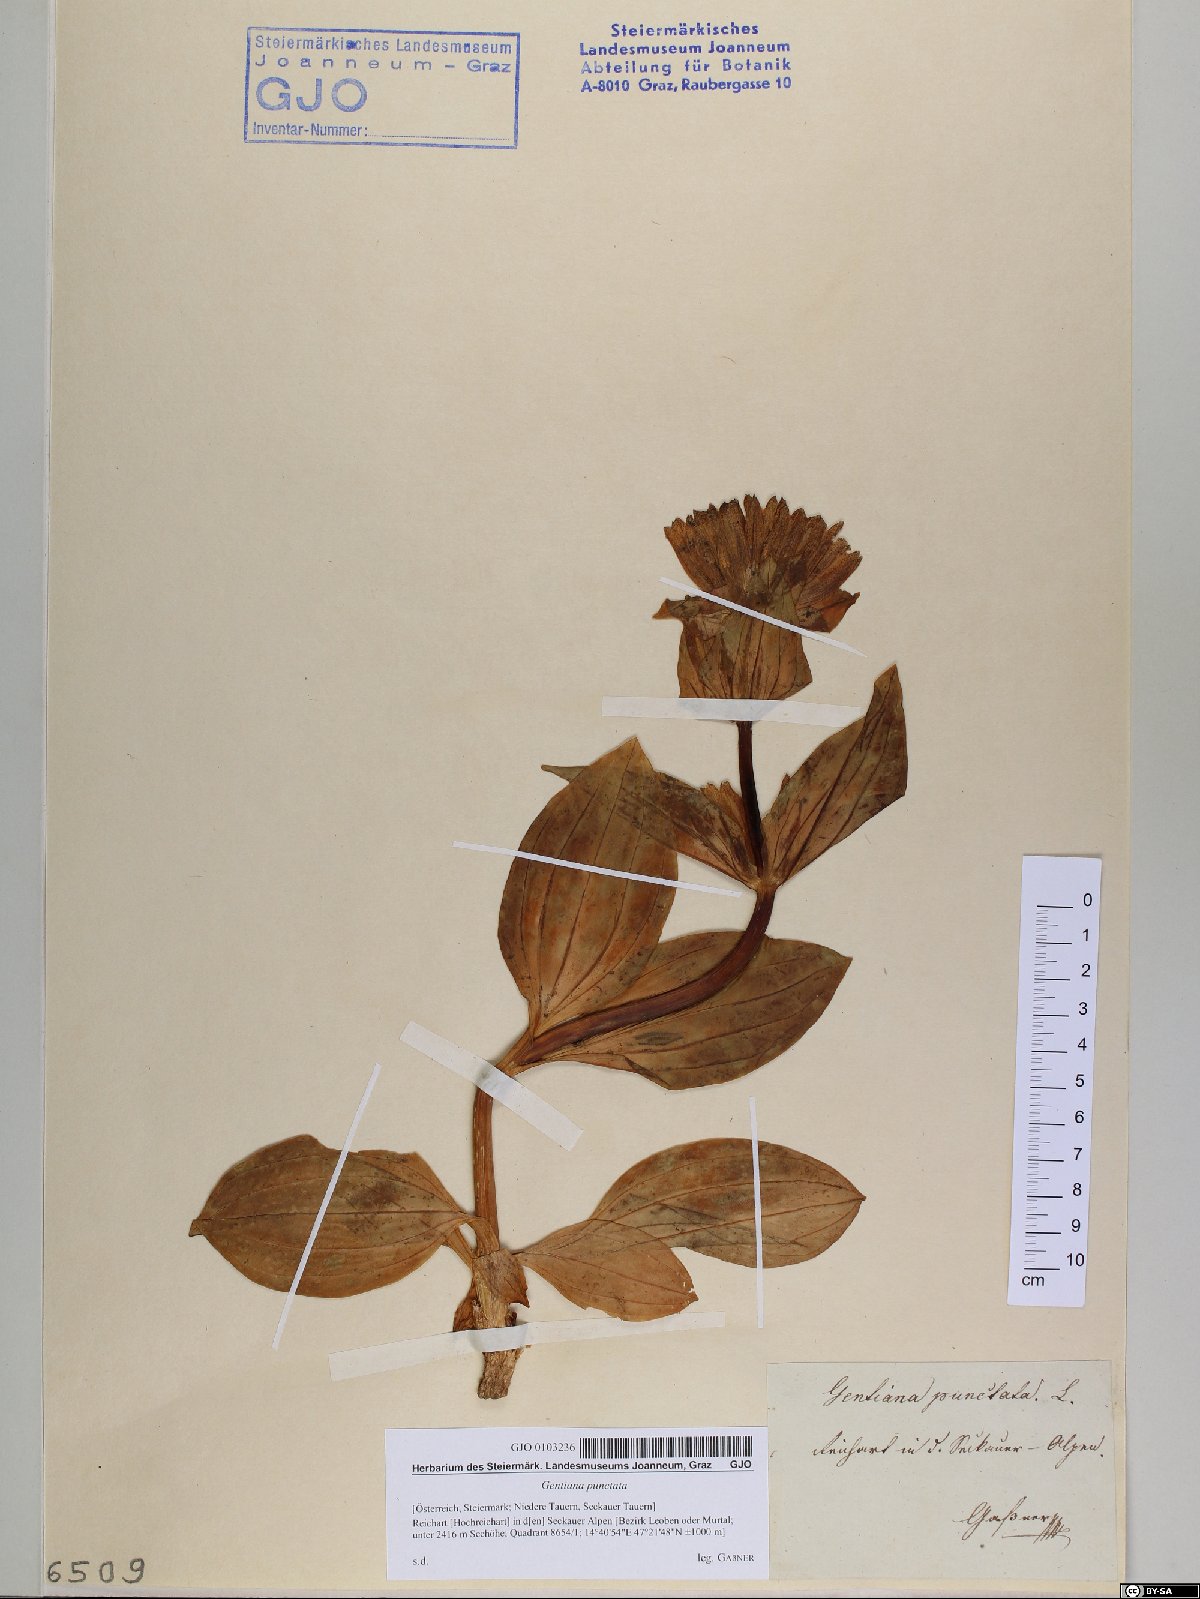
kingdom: Plantae
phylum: Tracheophyta
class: Magnoliopsida
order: Gentianales
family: Gentianaceae
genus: Gentiana
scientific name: Gentiana punctata
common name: Spotted gentian
